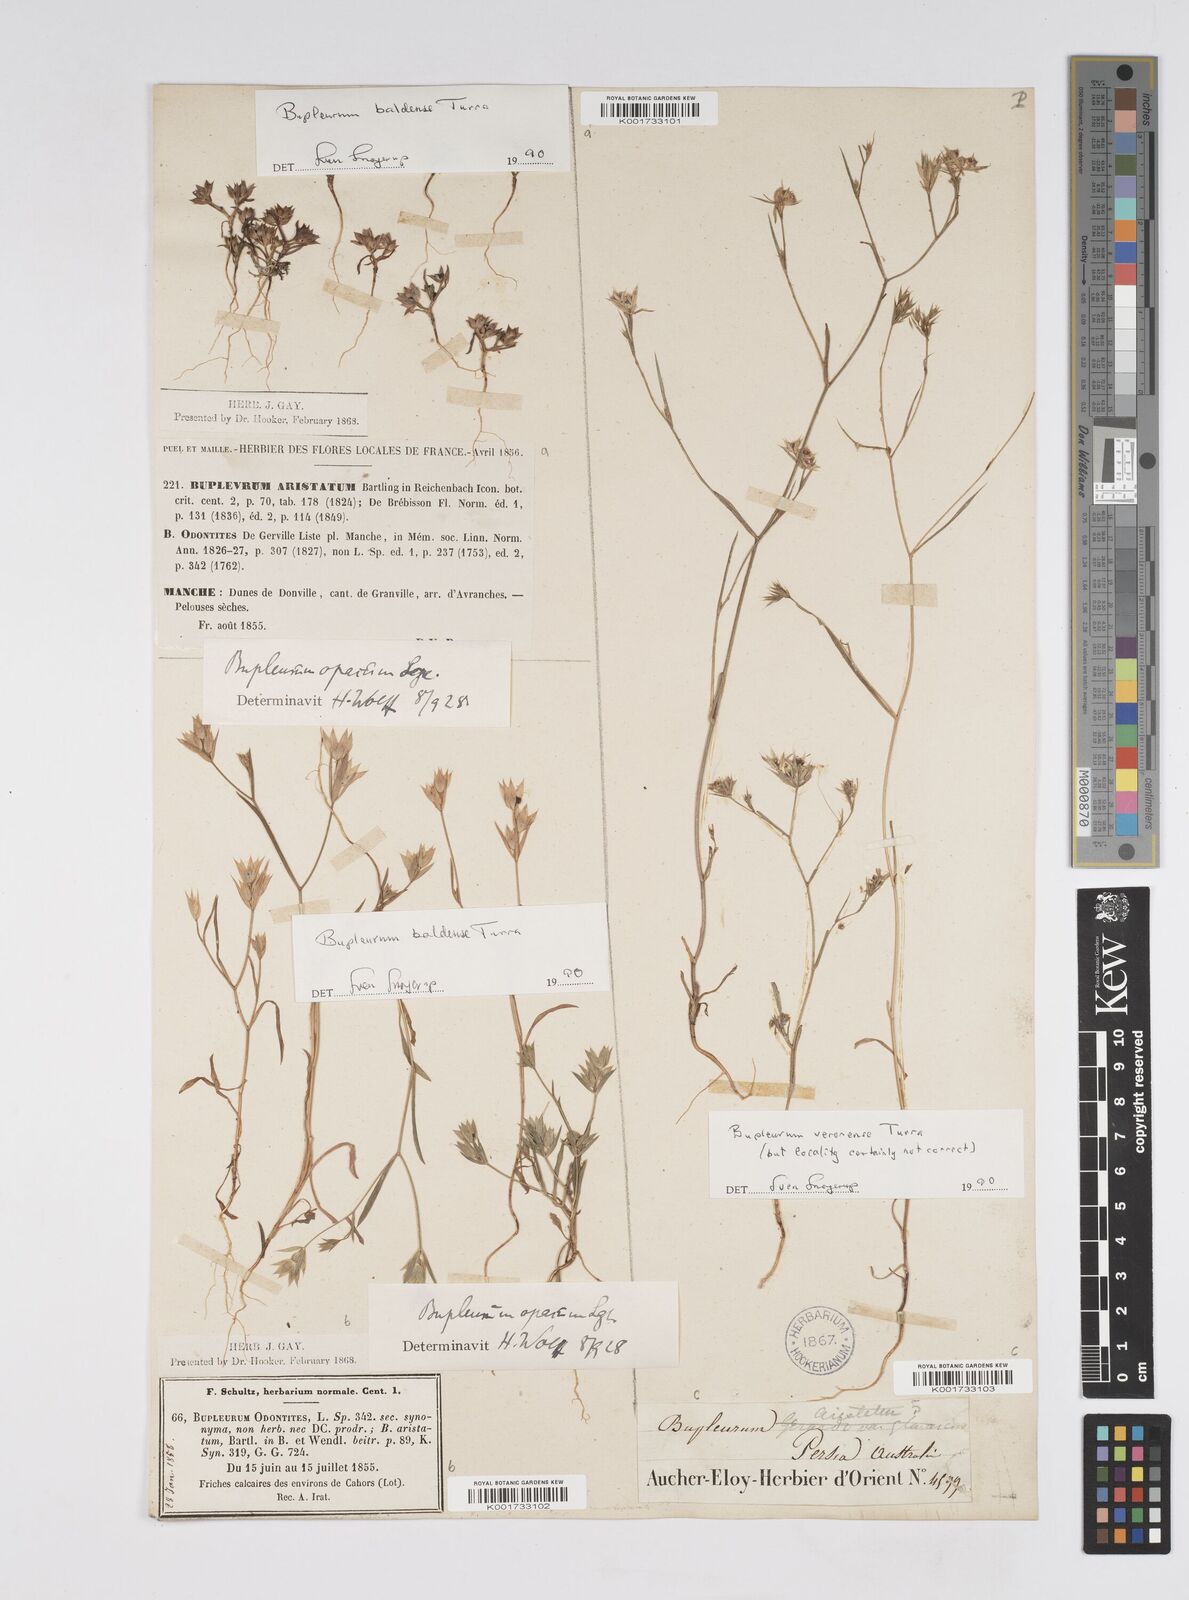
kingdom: Plantae
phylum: Tracheophyta
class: Magnoliopsida
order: Apiales
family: Apiaceae
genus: Bupleurum
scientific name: Bupleurum baldense
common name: Small hare's-ear
